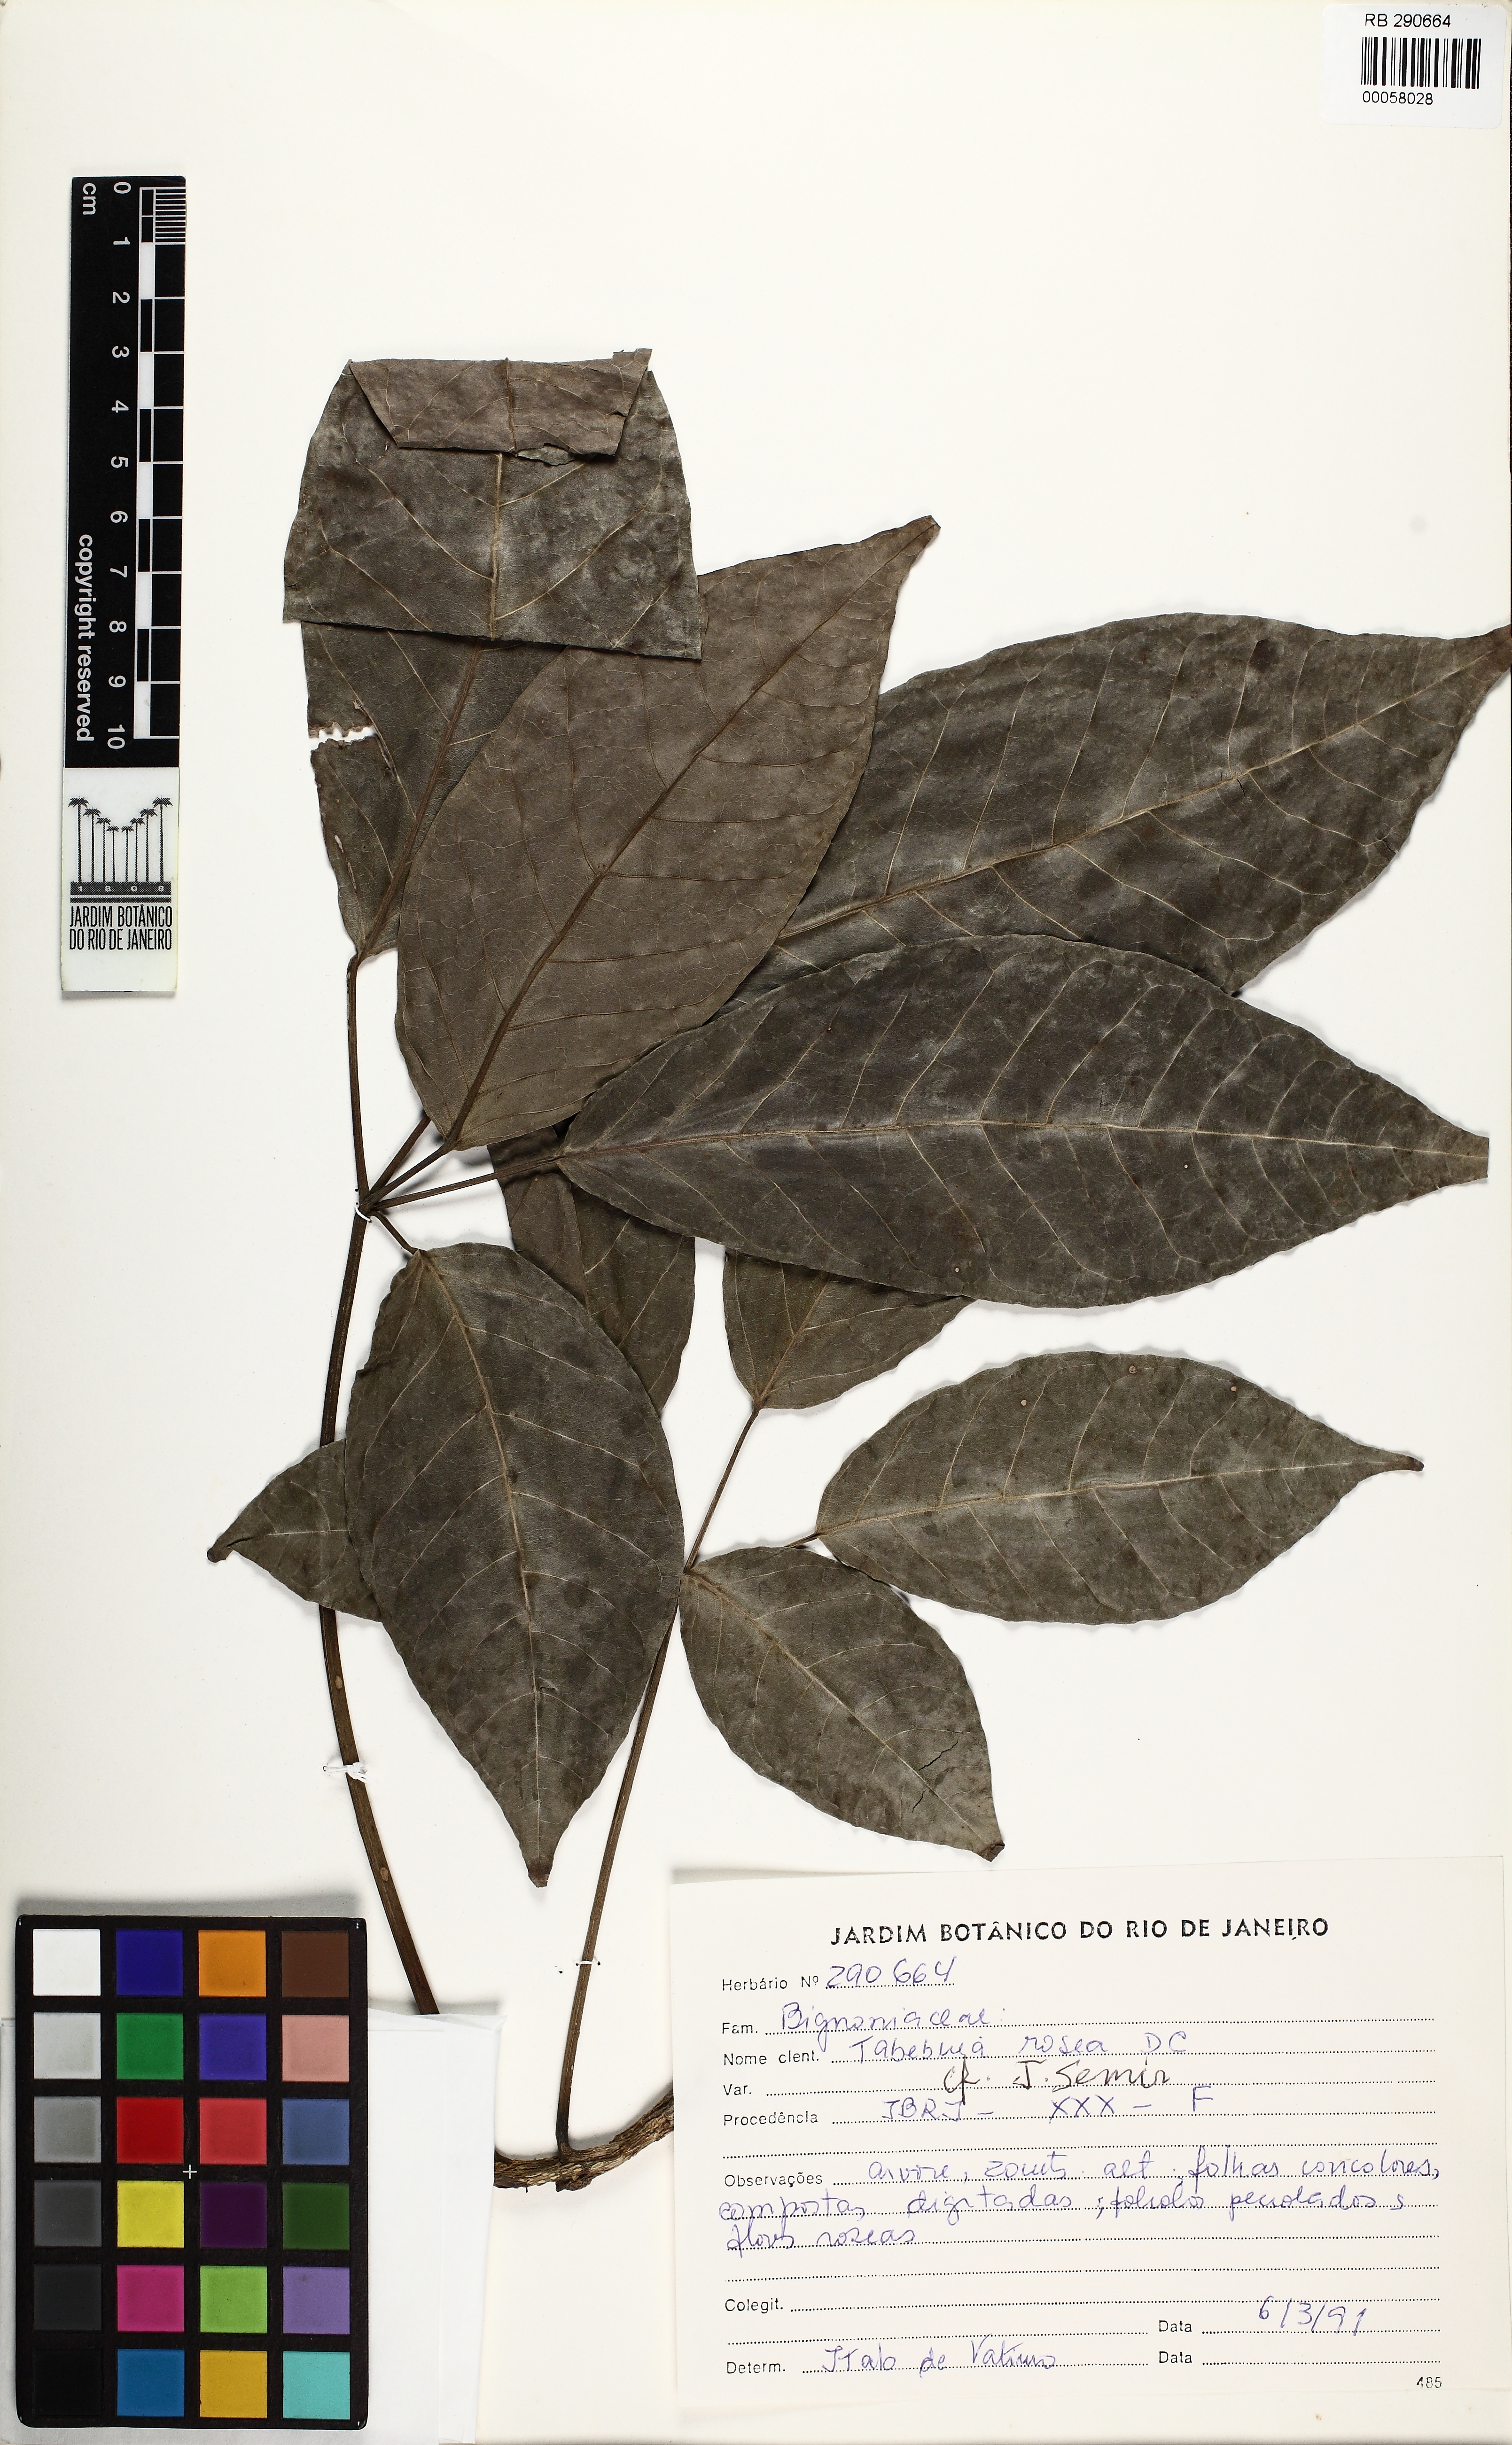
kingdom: Plantae
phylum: Tracheophyta
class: Magnoliopsida
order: Lamiales
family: Bignoniaceae
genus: Tabebuia
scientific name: Tabebuia rosea
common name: Pink poui
